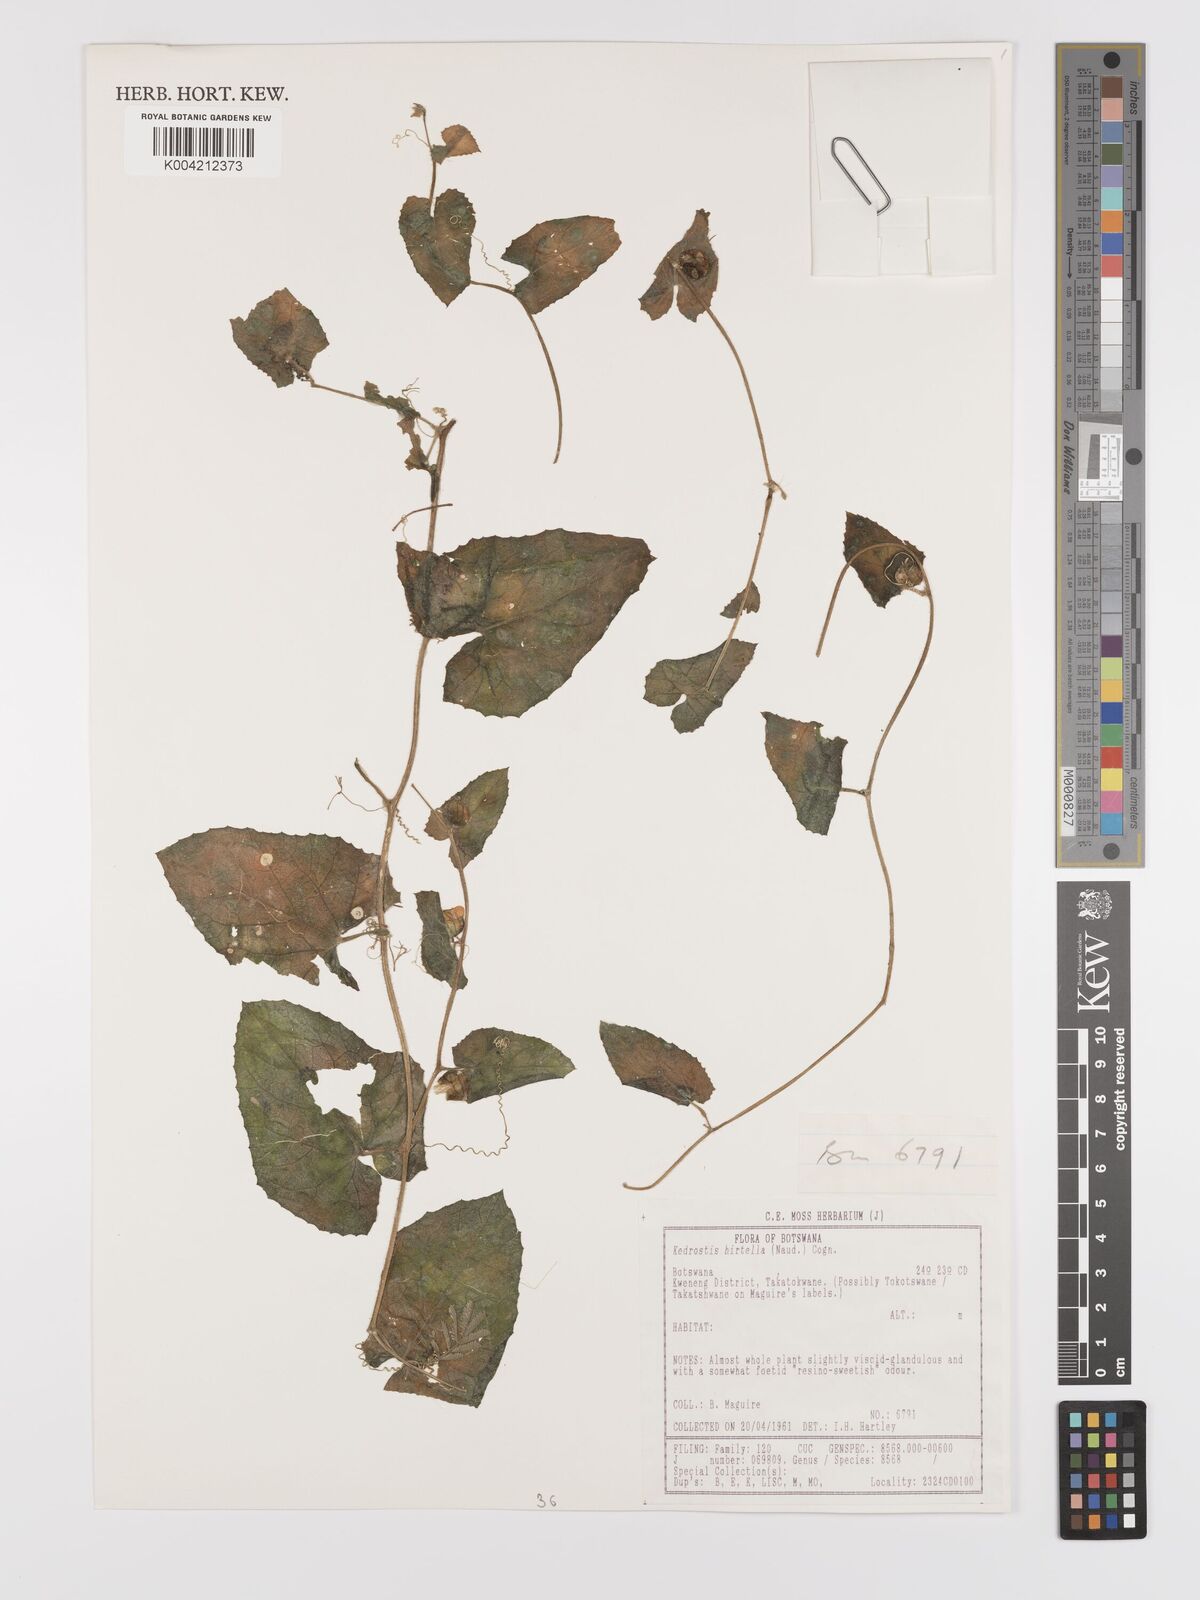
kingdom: Plantae
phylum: Tracheophyta
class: Magnoliopsida
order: Cucurbitales
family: Cucurbitaceae
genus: Kedrostis
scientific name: Kedrostis foetidissima
